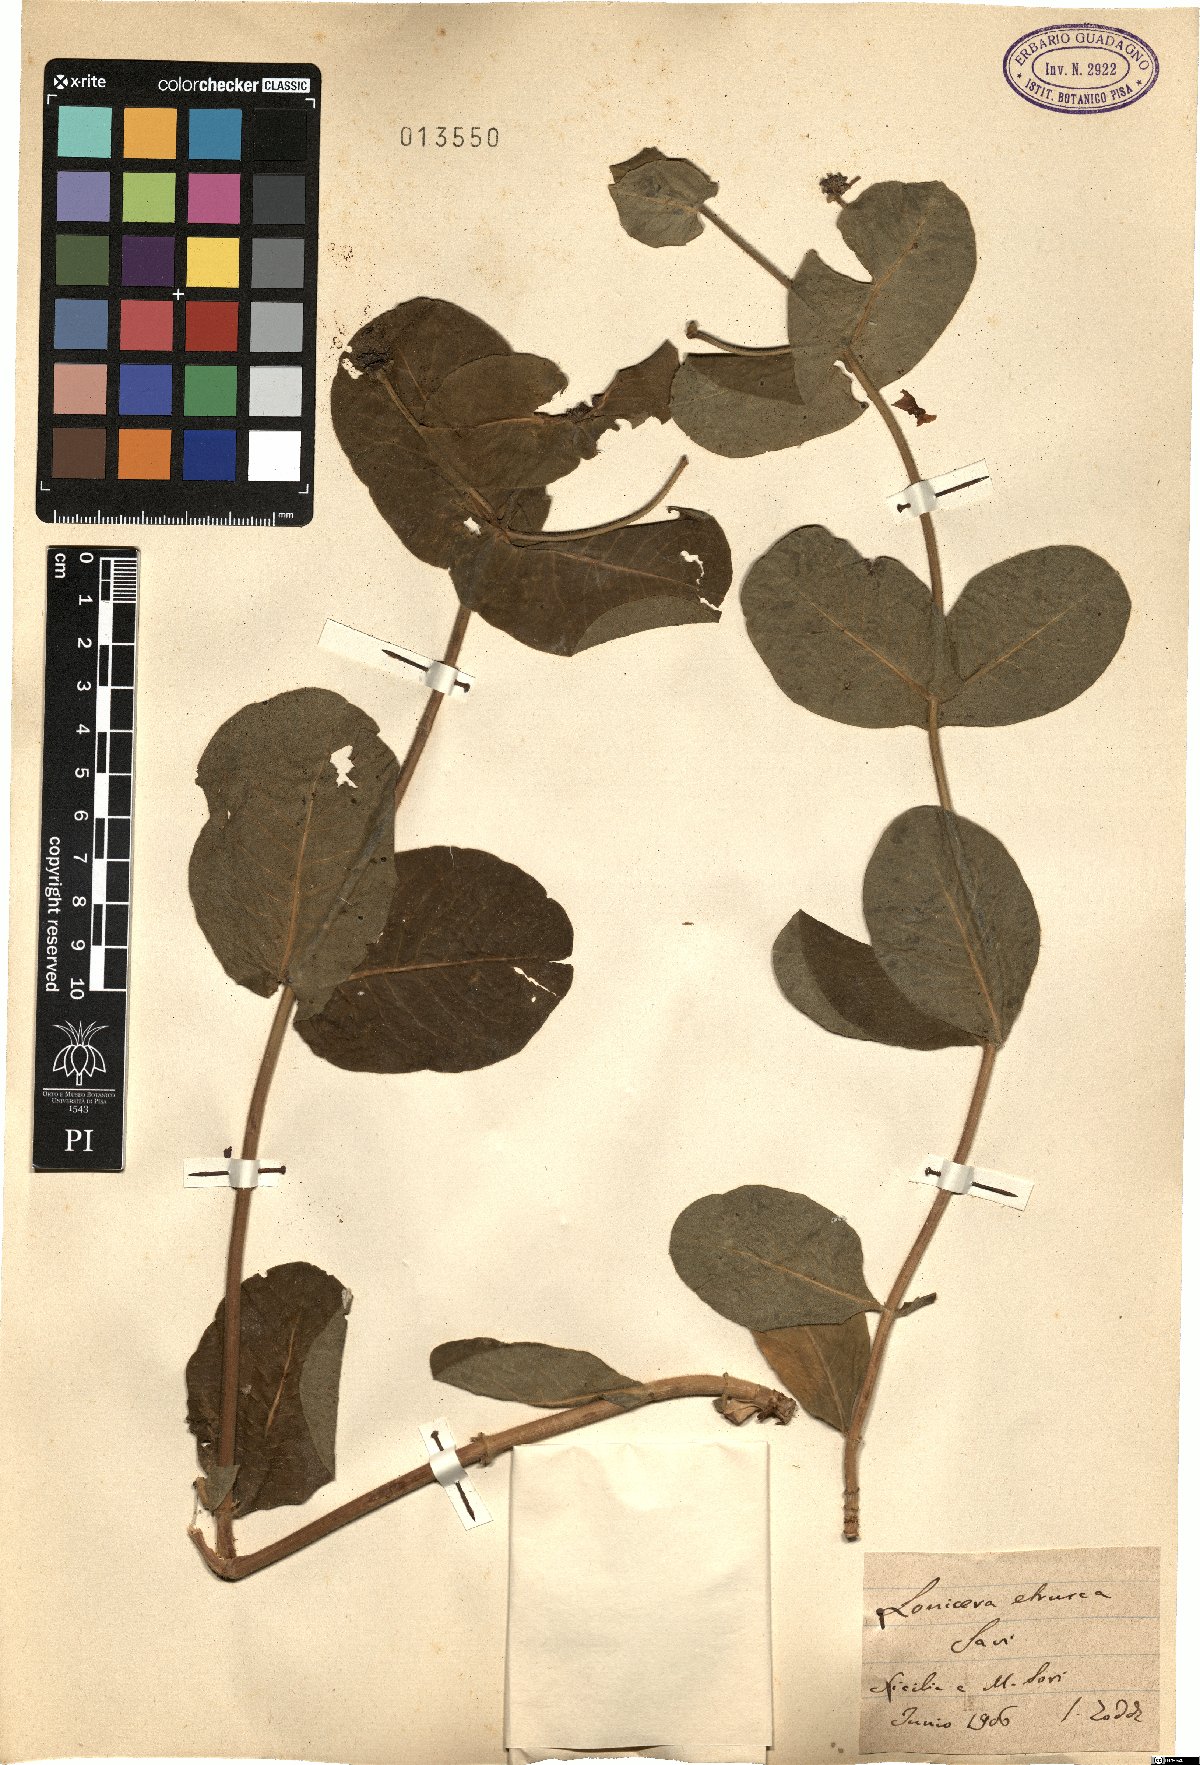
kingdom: Plantae
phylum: Tracheophyta
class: Magnoliopsida
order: Dipsacales
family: Caprifoliaceae
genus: Lonicera
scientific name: Lonicera etrusca
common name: Etruscan honeysuckle
